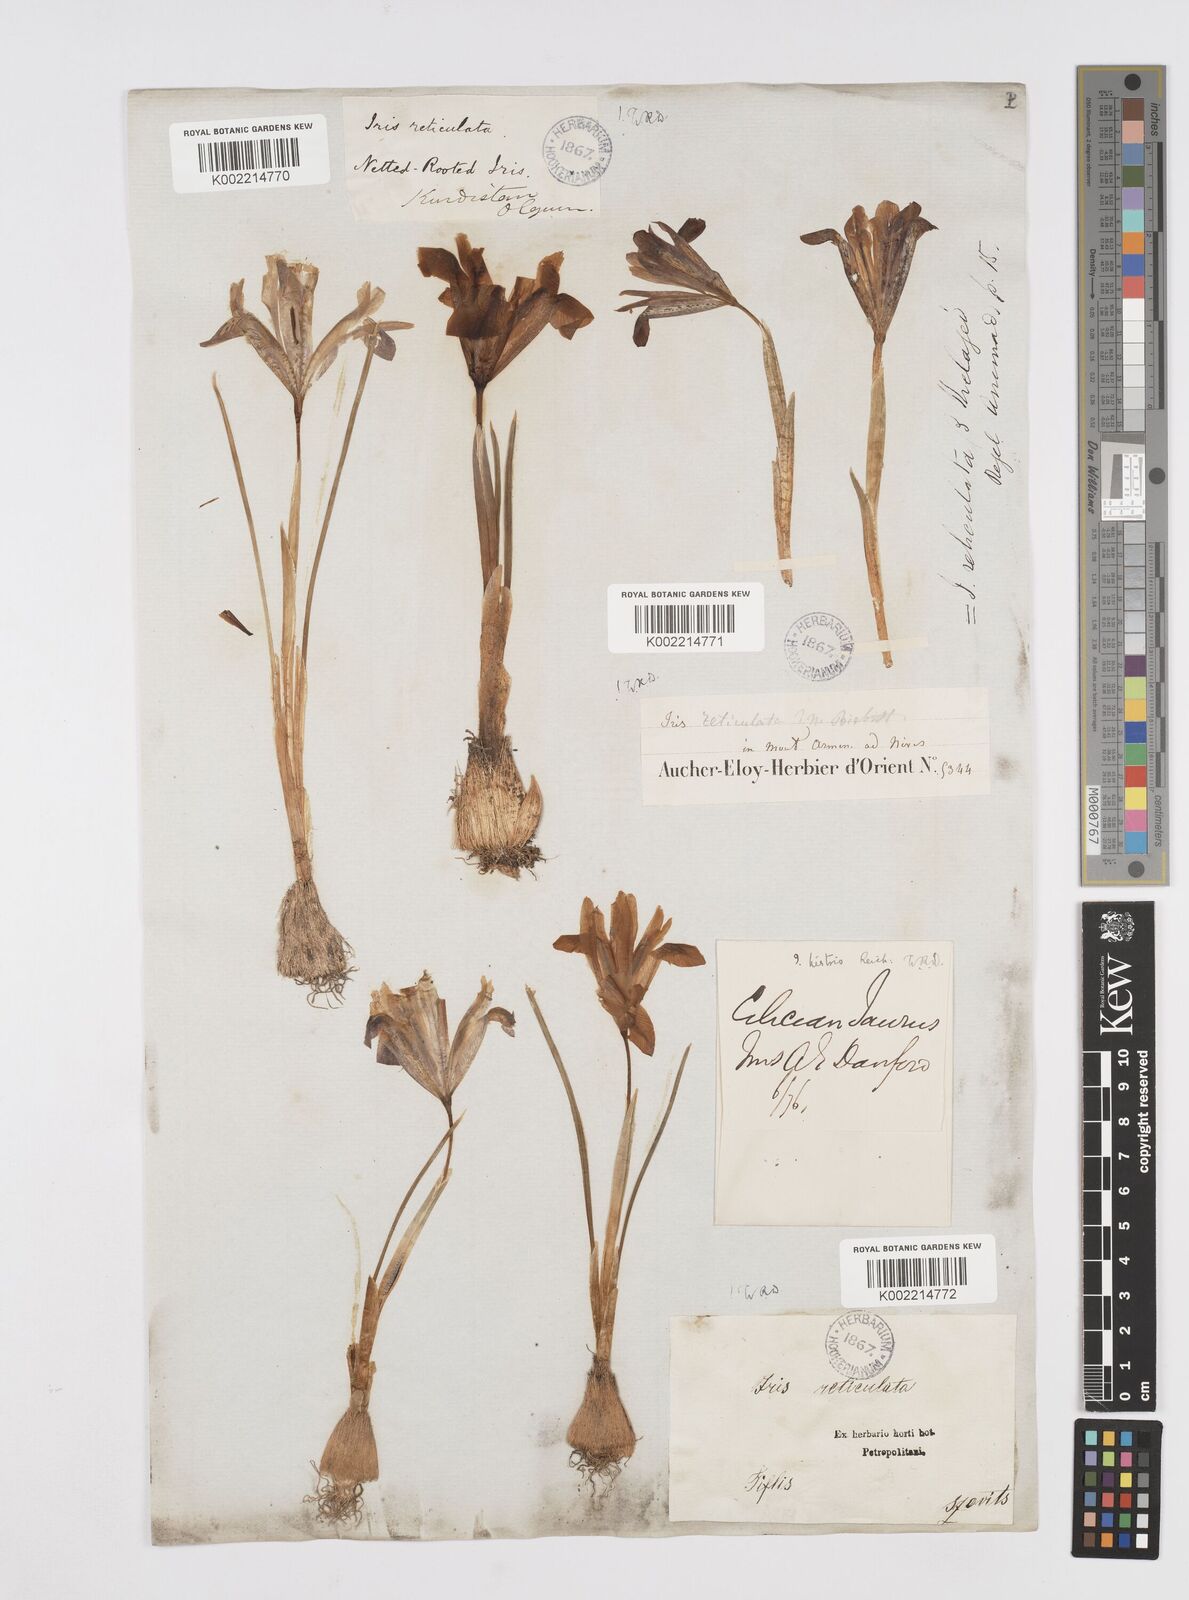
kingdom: Plantae
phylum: Tracheophyta
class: Liliopsida
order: Asparagales
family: Iridaceae
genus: Iris
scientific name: Iris reticulata
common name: Netted iris
